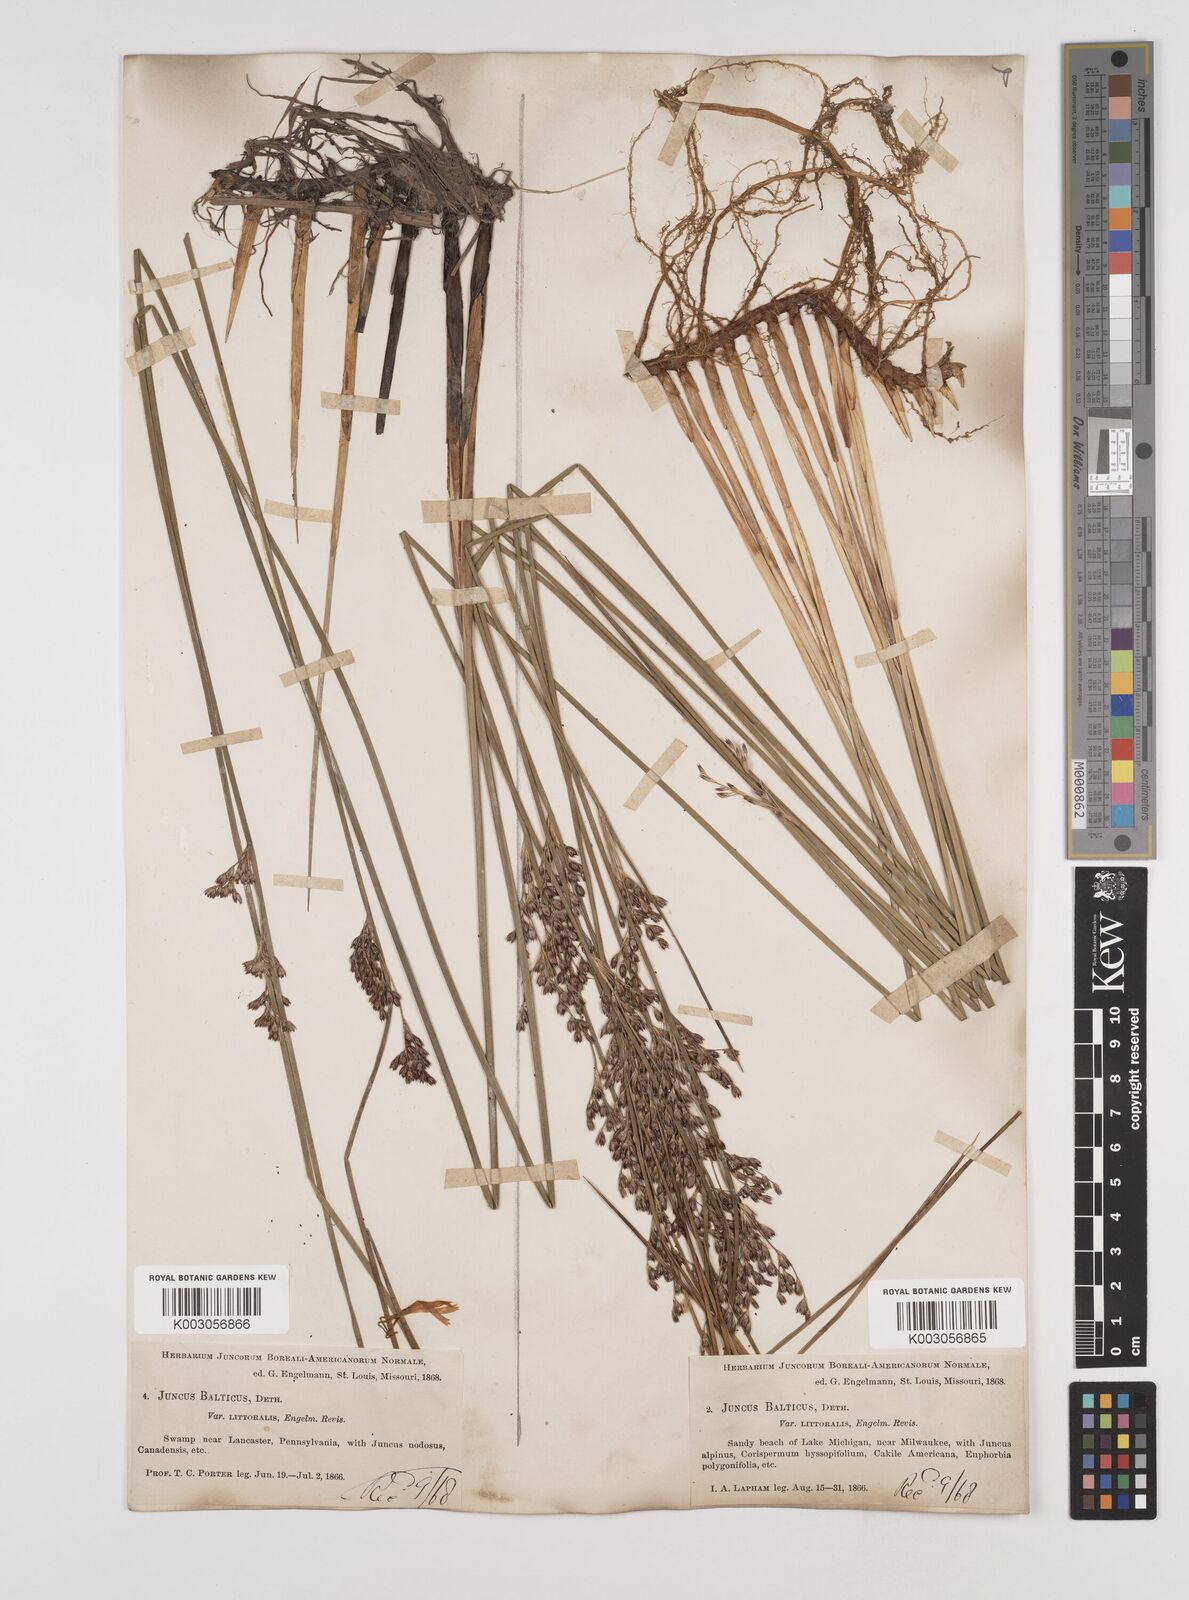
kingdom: Plantae
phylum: Tracheophyta
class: Liliopsida
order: Poales
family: Juncaceae
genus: Juncus
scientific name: Juncus balticus
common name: Baltic rush
